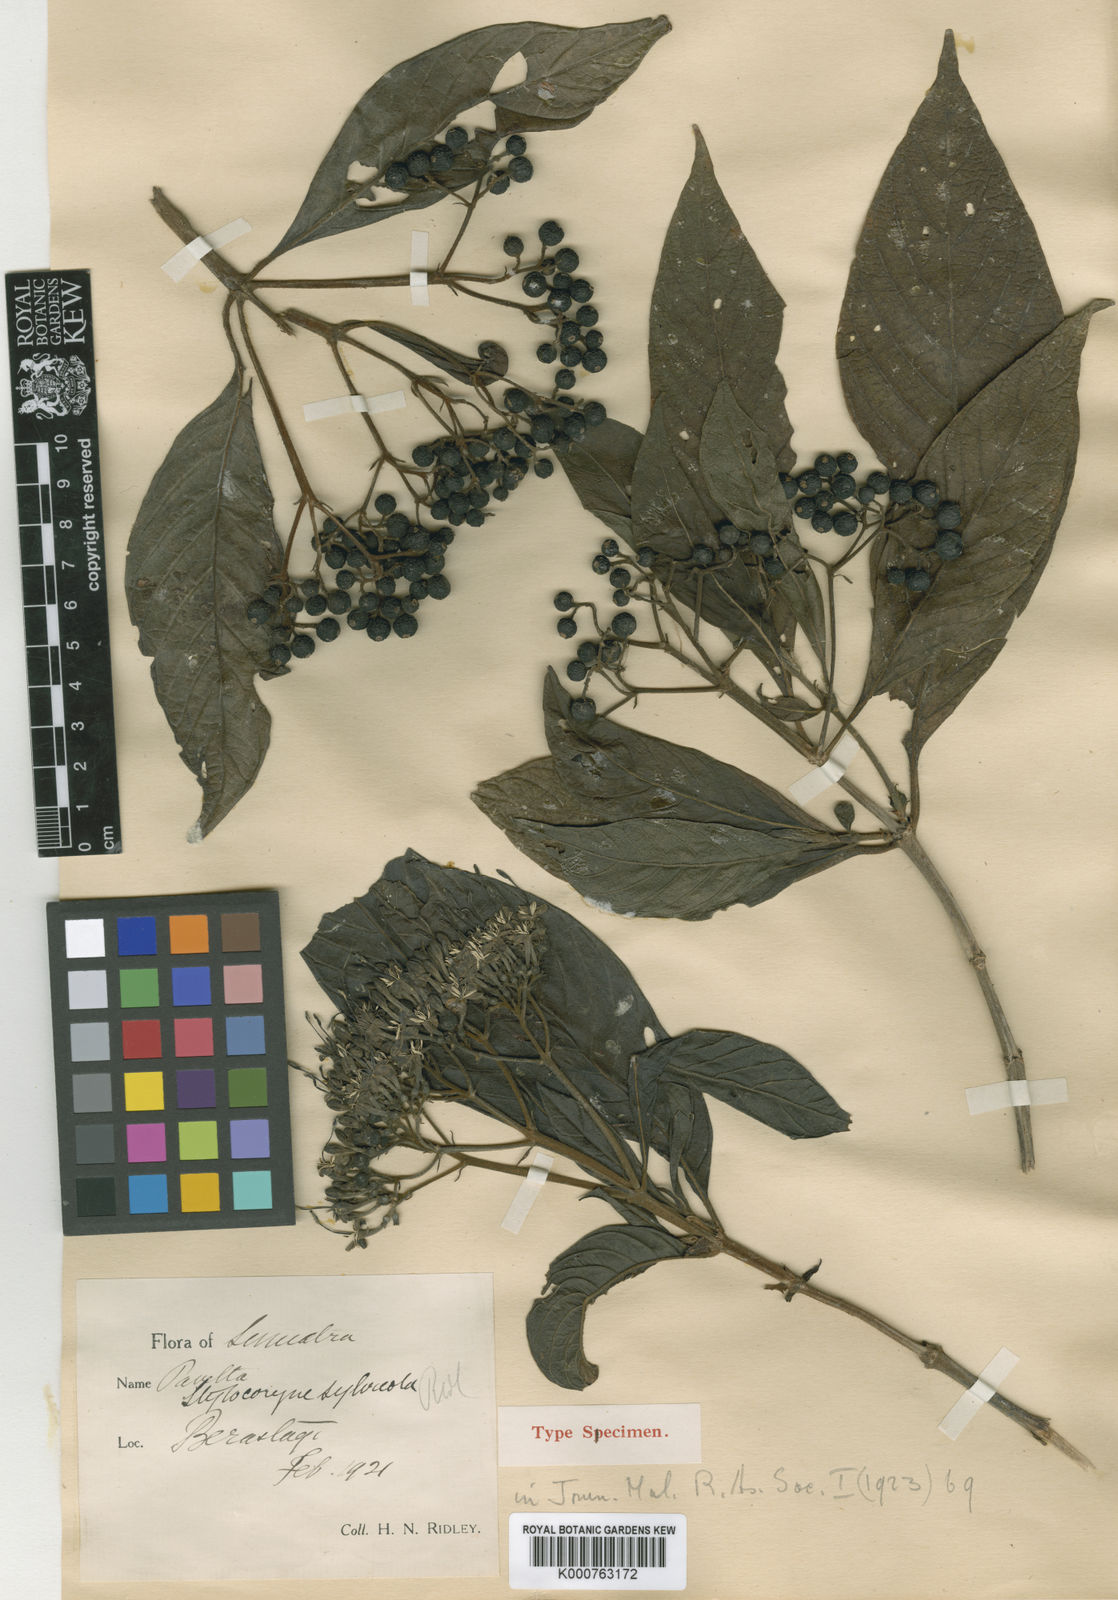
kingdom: Plantae
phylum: Tracheophyta
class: Magnoliopsida
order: Gentianales
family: Rubiaceae
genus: Tarenna
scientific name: Tarenna sylvicola
